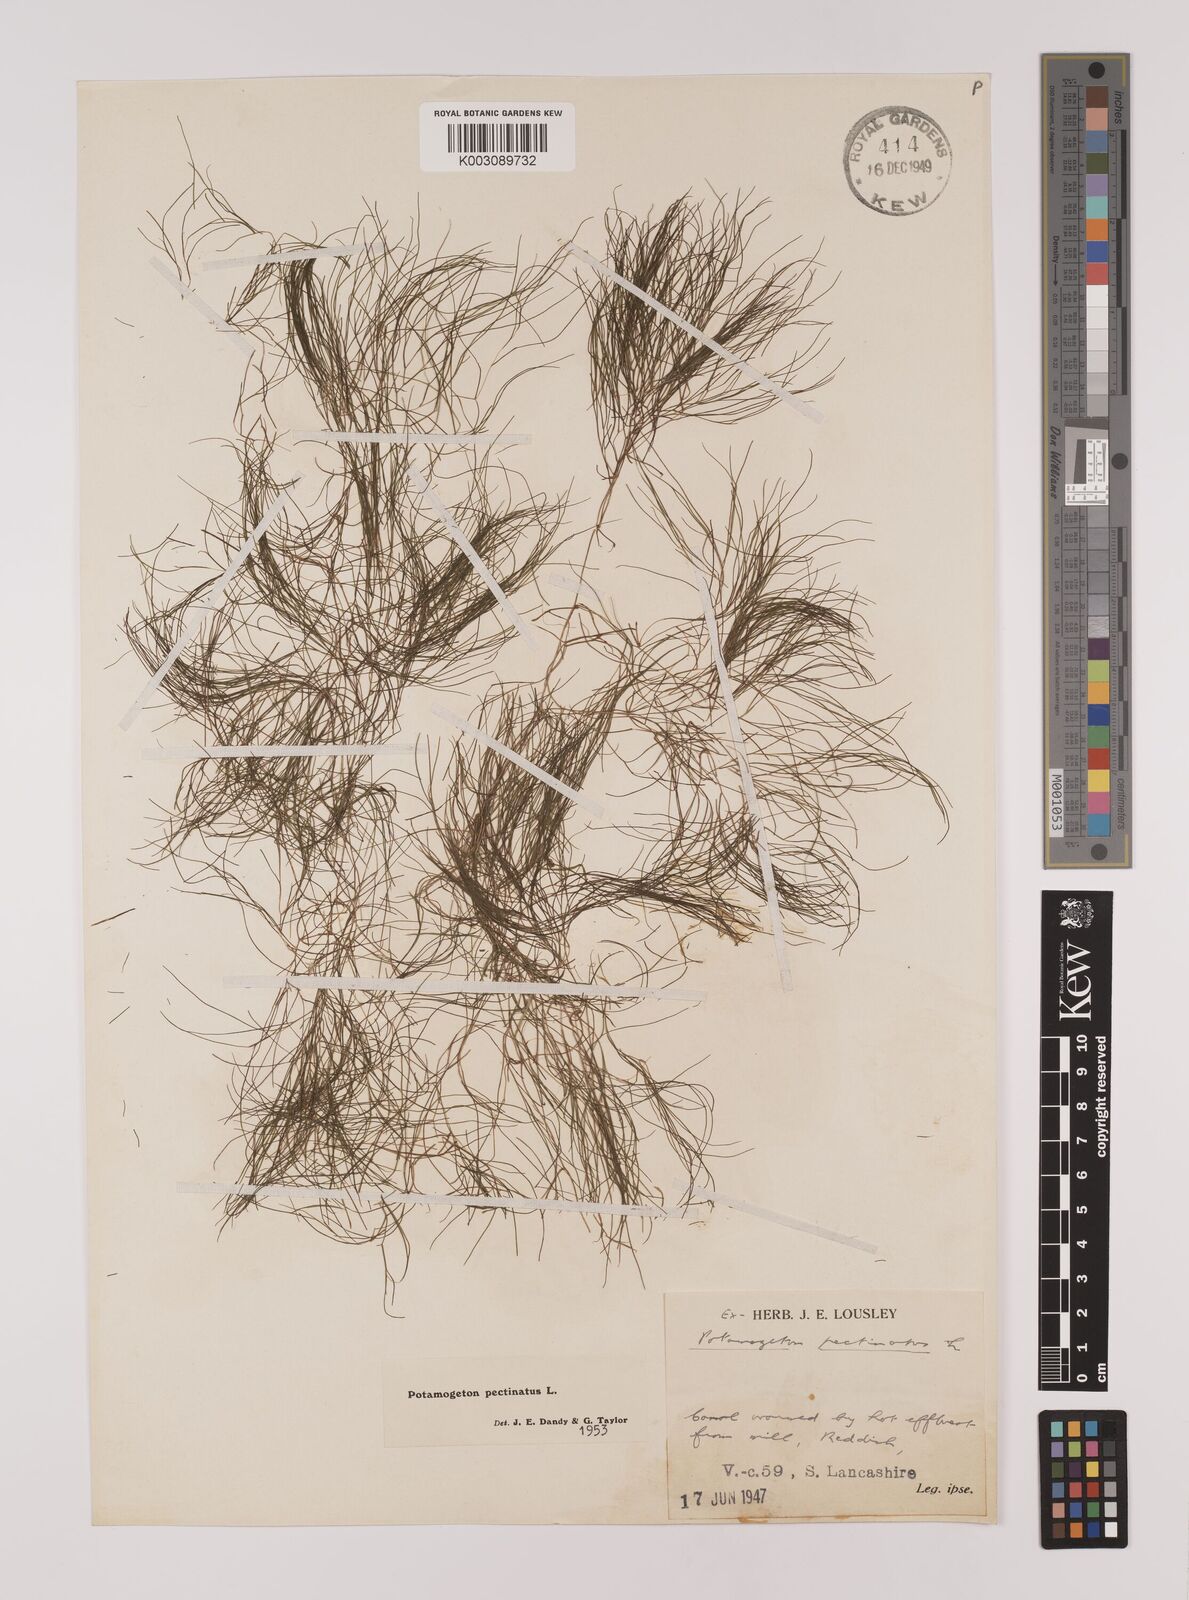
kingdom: Plantae
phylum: Tracheophyta
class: Liliopsida
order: Alismatales
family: Potamogetonaceae
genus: Stuckenia
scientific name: Stuckenia pectinata
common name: Sago pondweed
